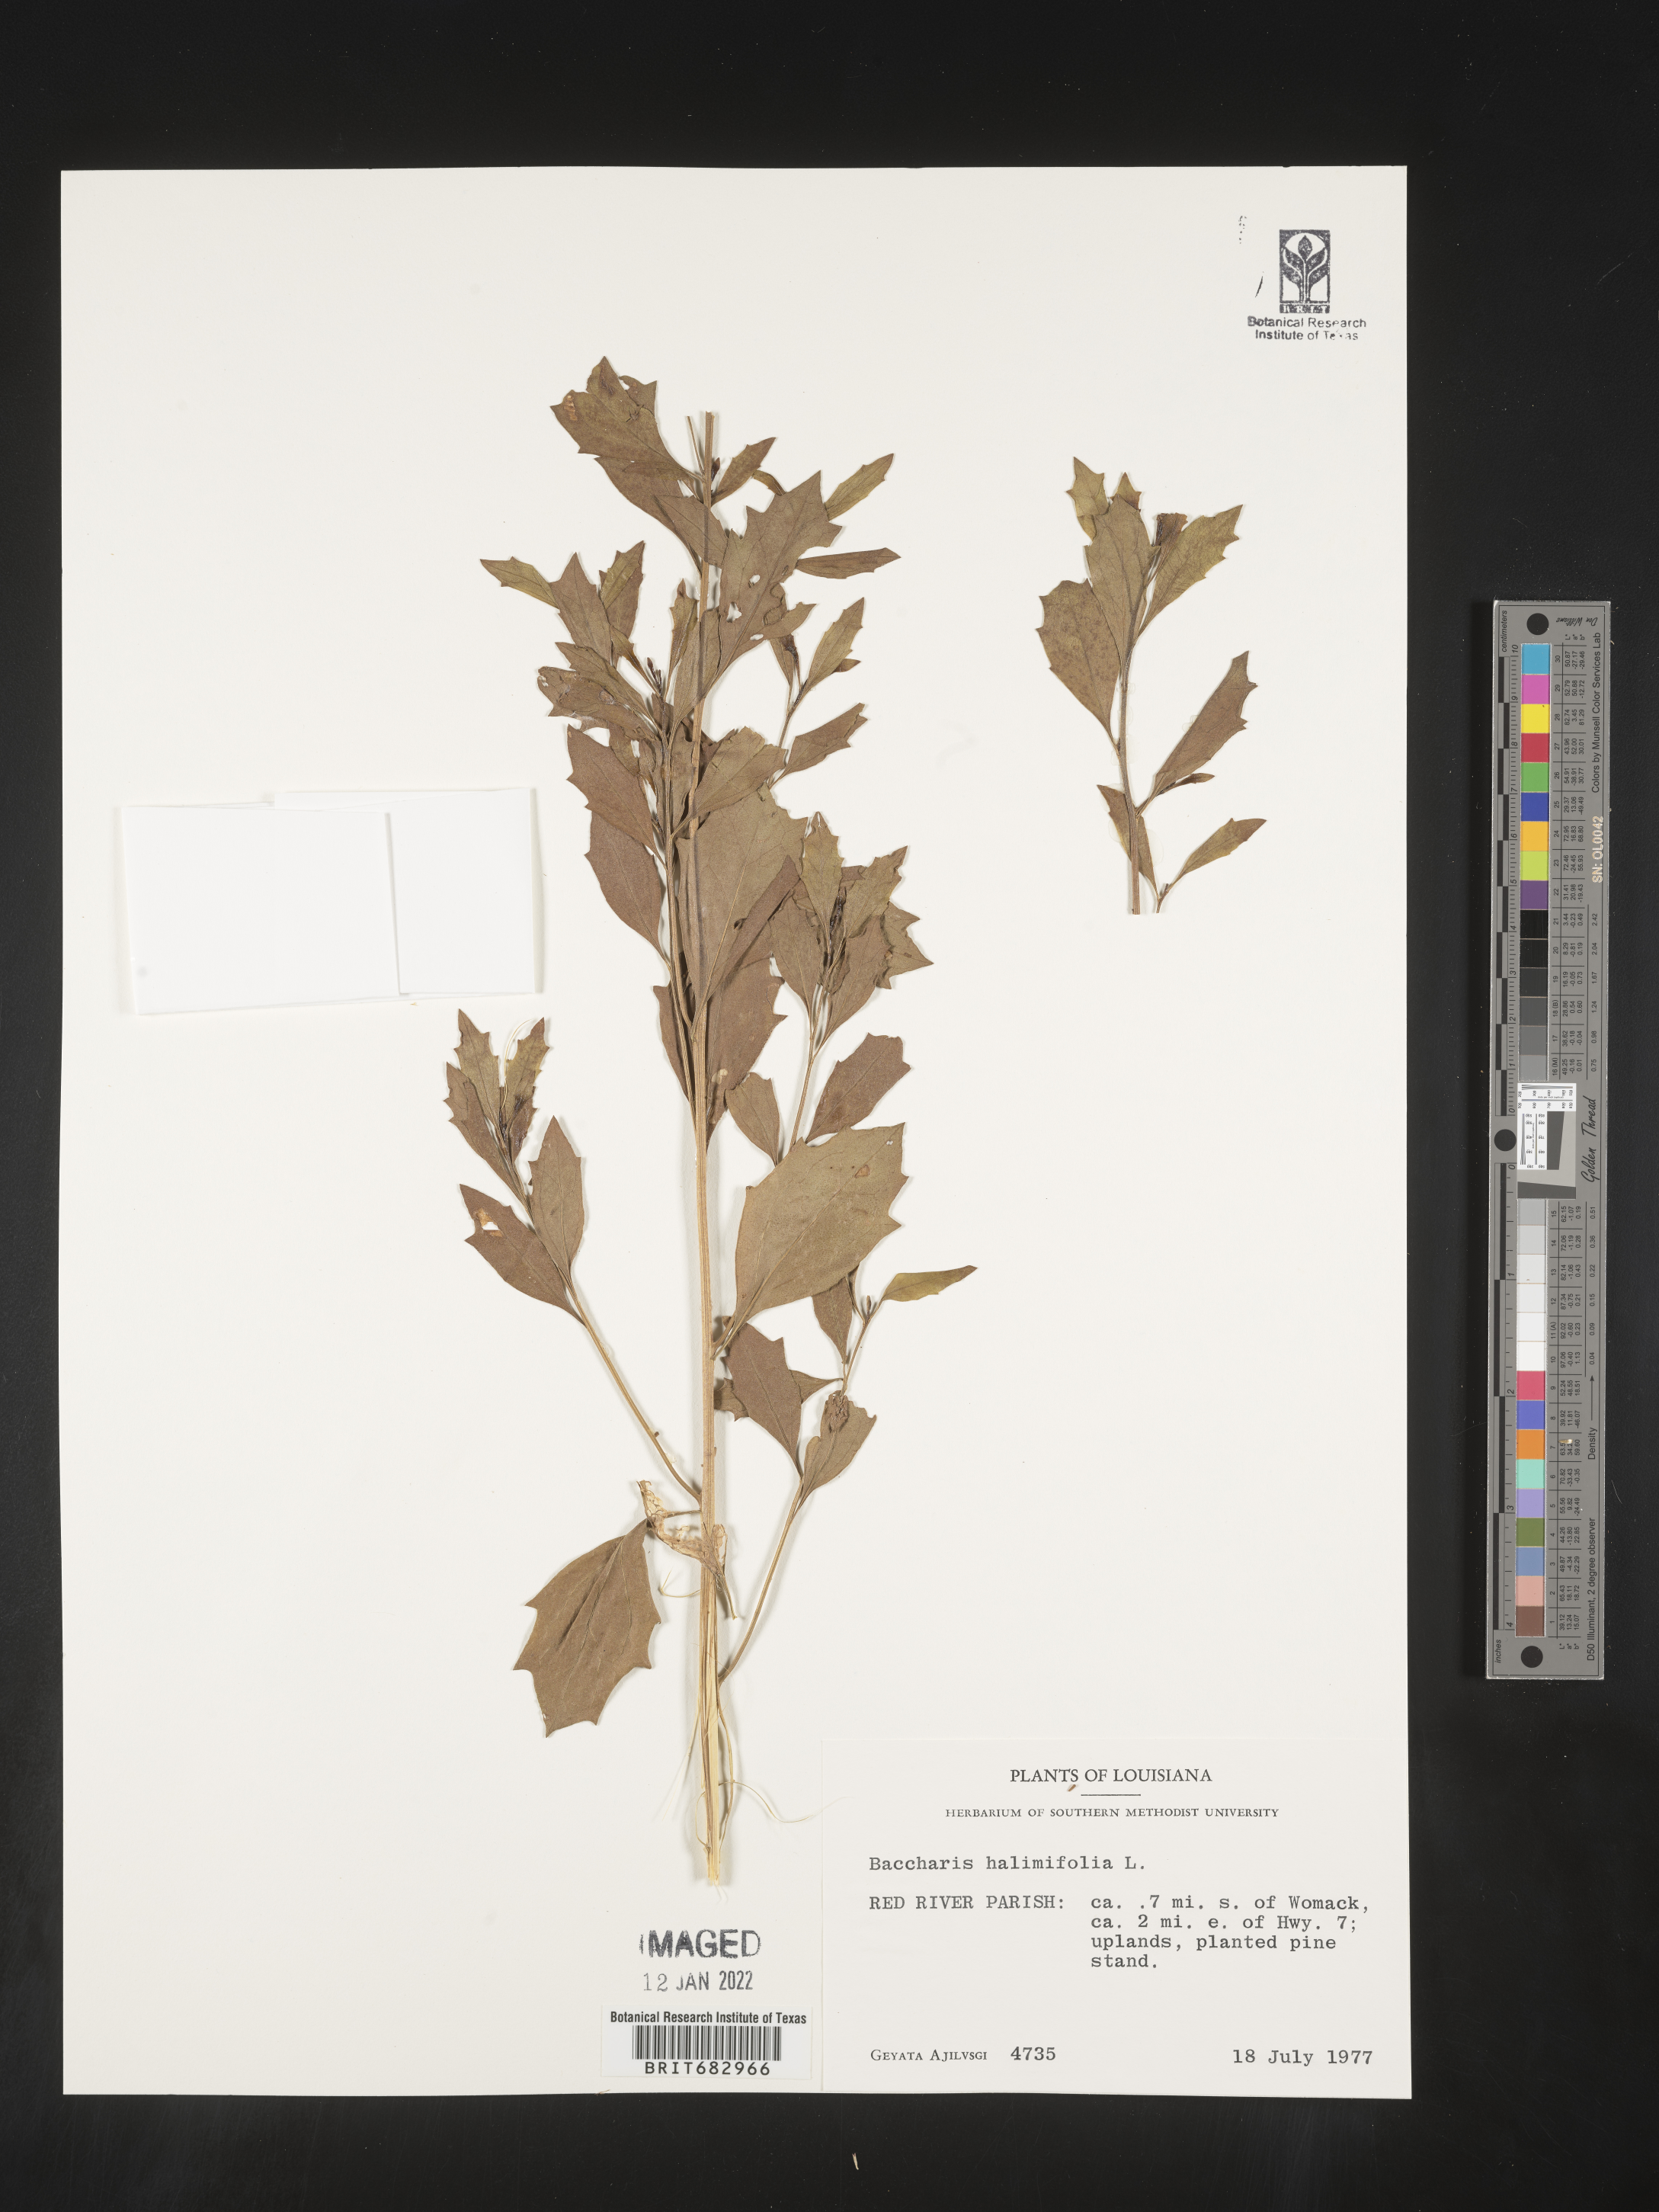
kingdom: Plantae
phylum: Tracheophyta
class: Magnoliopsida
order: Asterales
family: Asteraceae
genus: Nidorella
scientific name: Nidorella ivifolia
